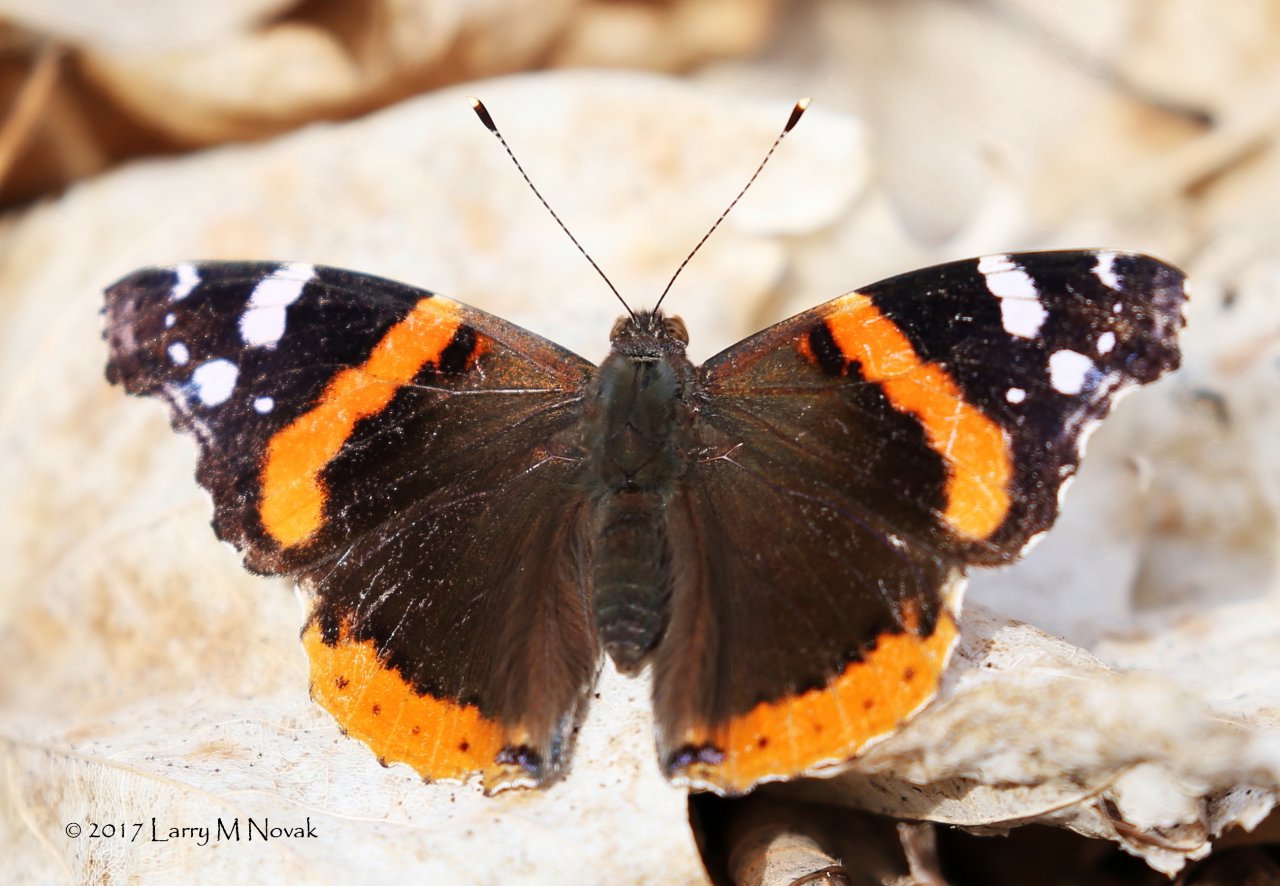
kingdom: Animalia
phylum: Arthropoda
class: Insecta
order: Lepidoptera
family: Nymphalidae
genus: Vanessa
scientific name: Vanessa atalanta
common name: Red Admiral
